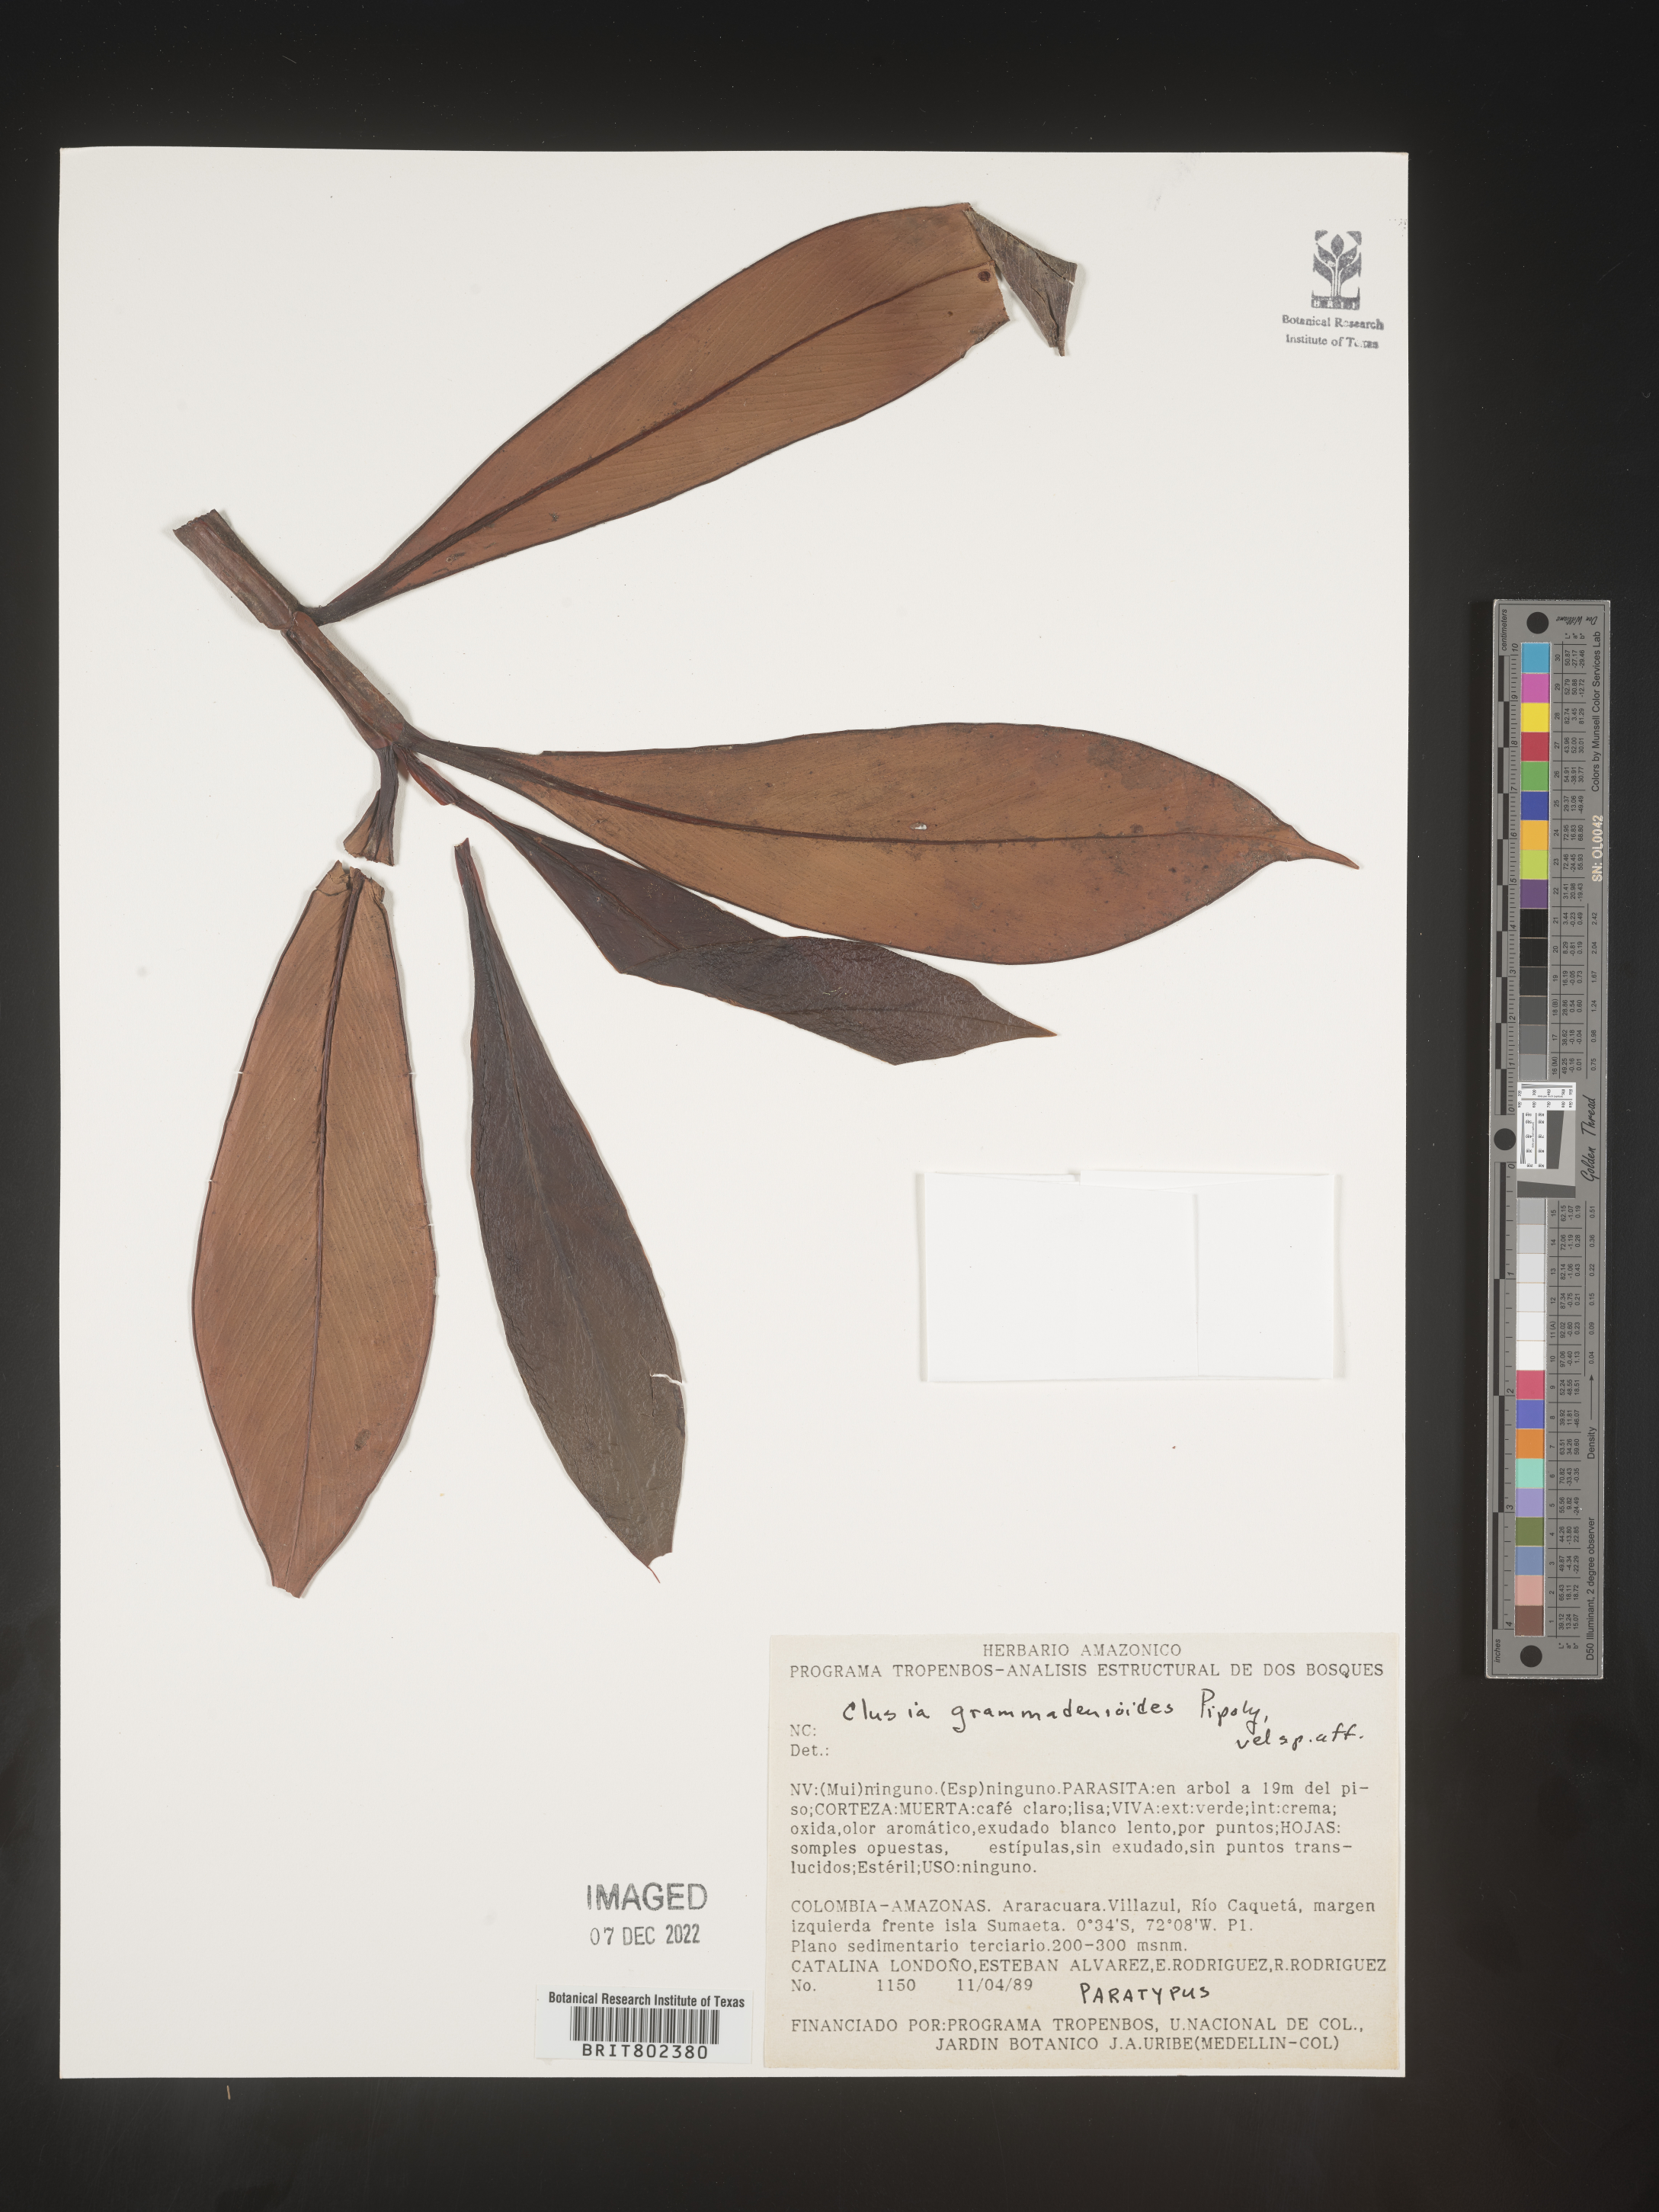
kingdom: Plantae
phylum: Tracheophyta
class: Magnoliopsida
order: Malpighiales
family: Clusiaceae
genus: Clusia
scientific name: Clusia
